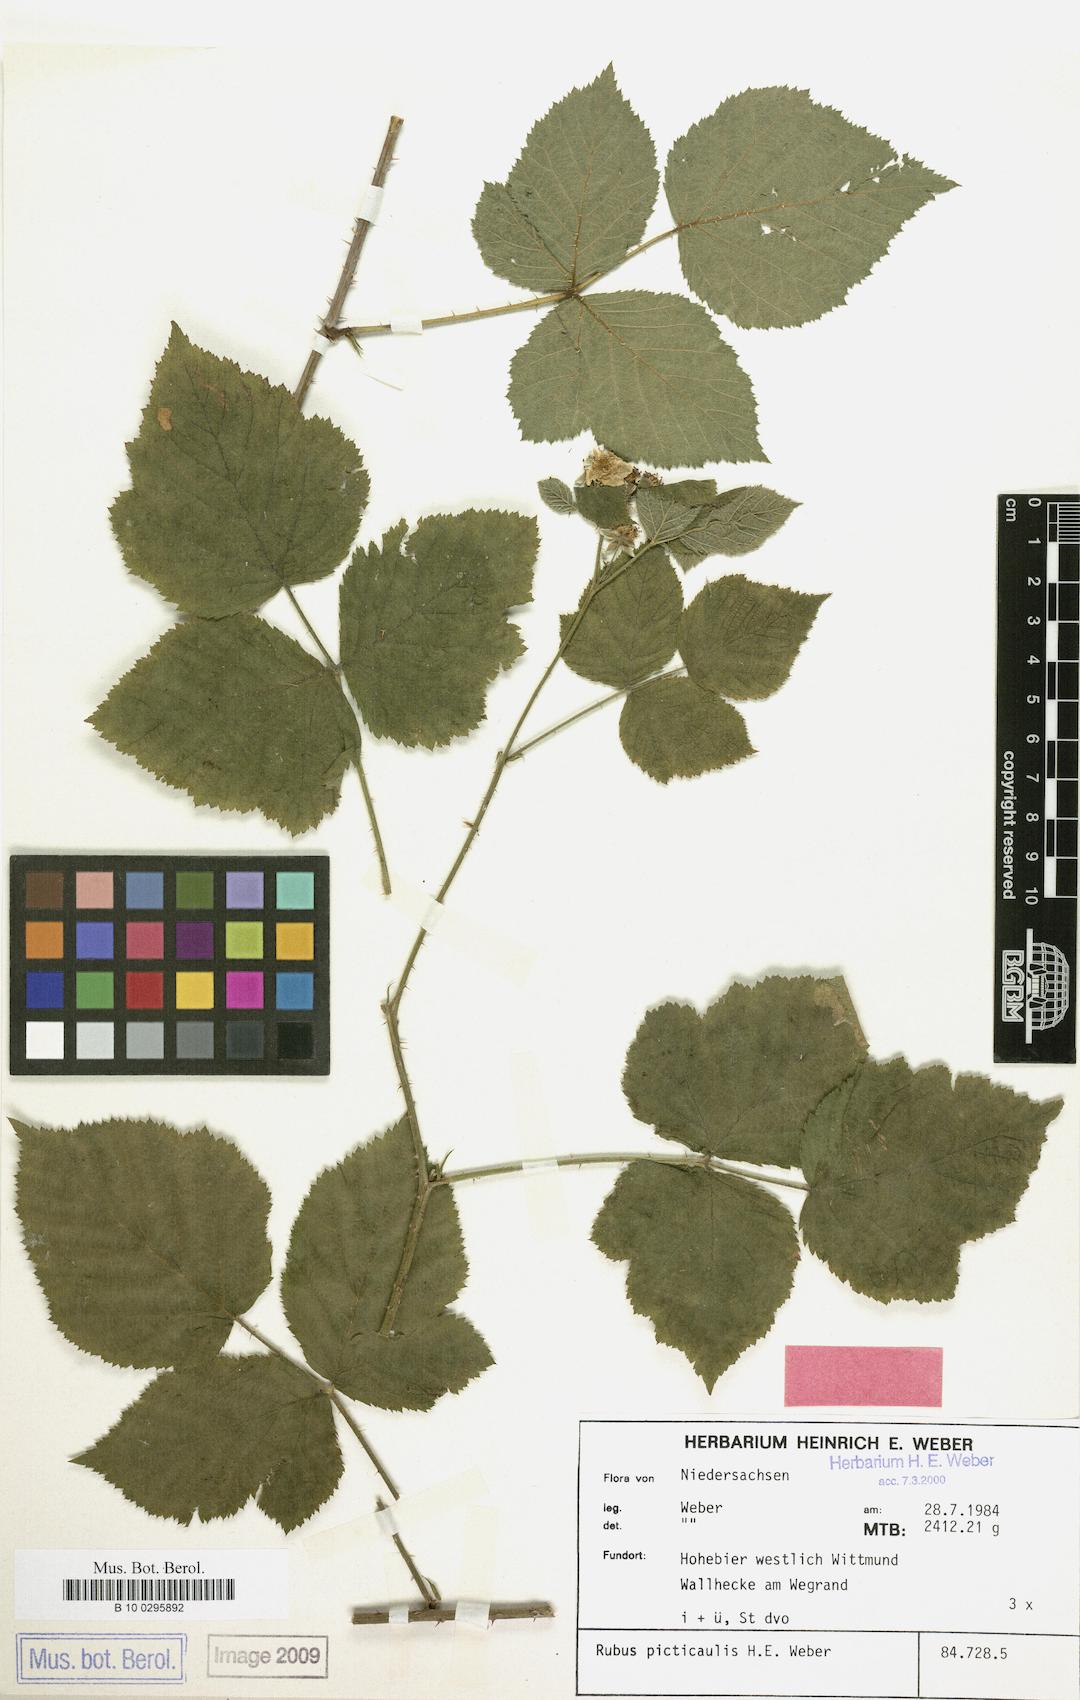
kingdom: Plantae
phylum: Tracheophyta
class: Magnoliopsida
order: Rosales
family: Rosaceae
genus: Rubus
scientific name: Rubus picticaulis
